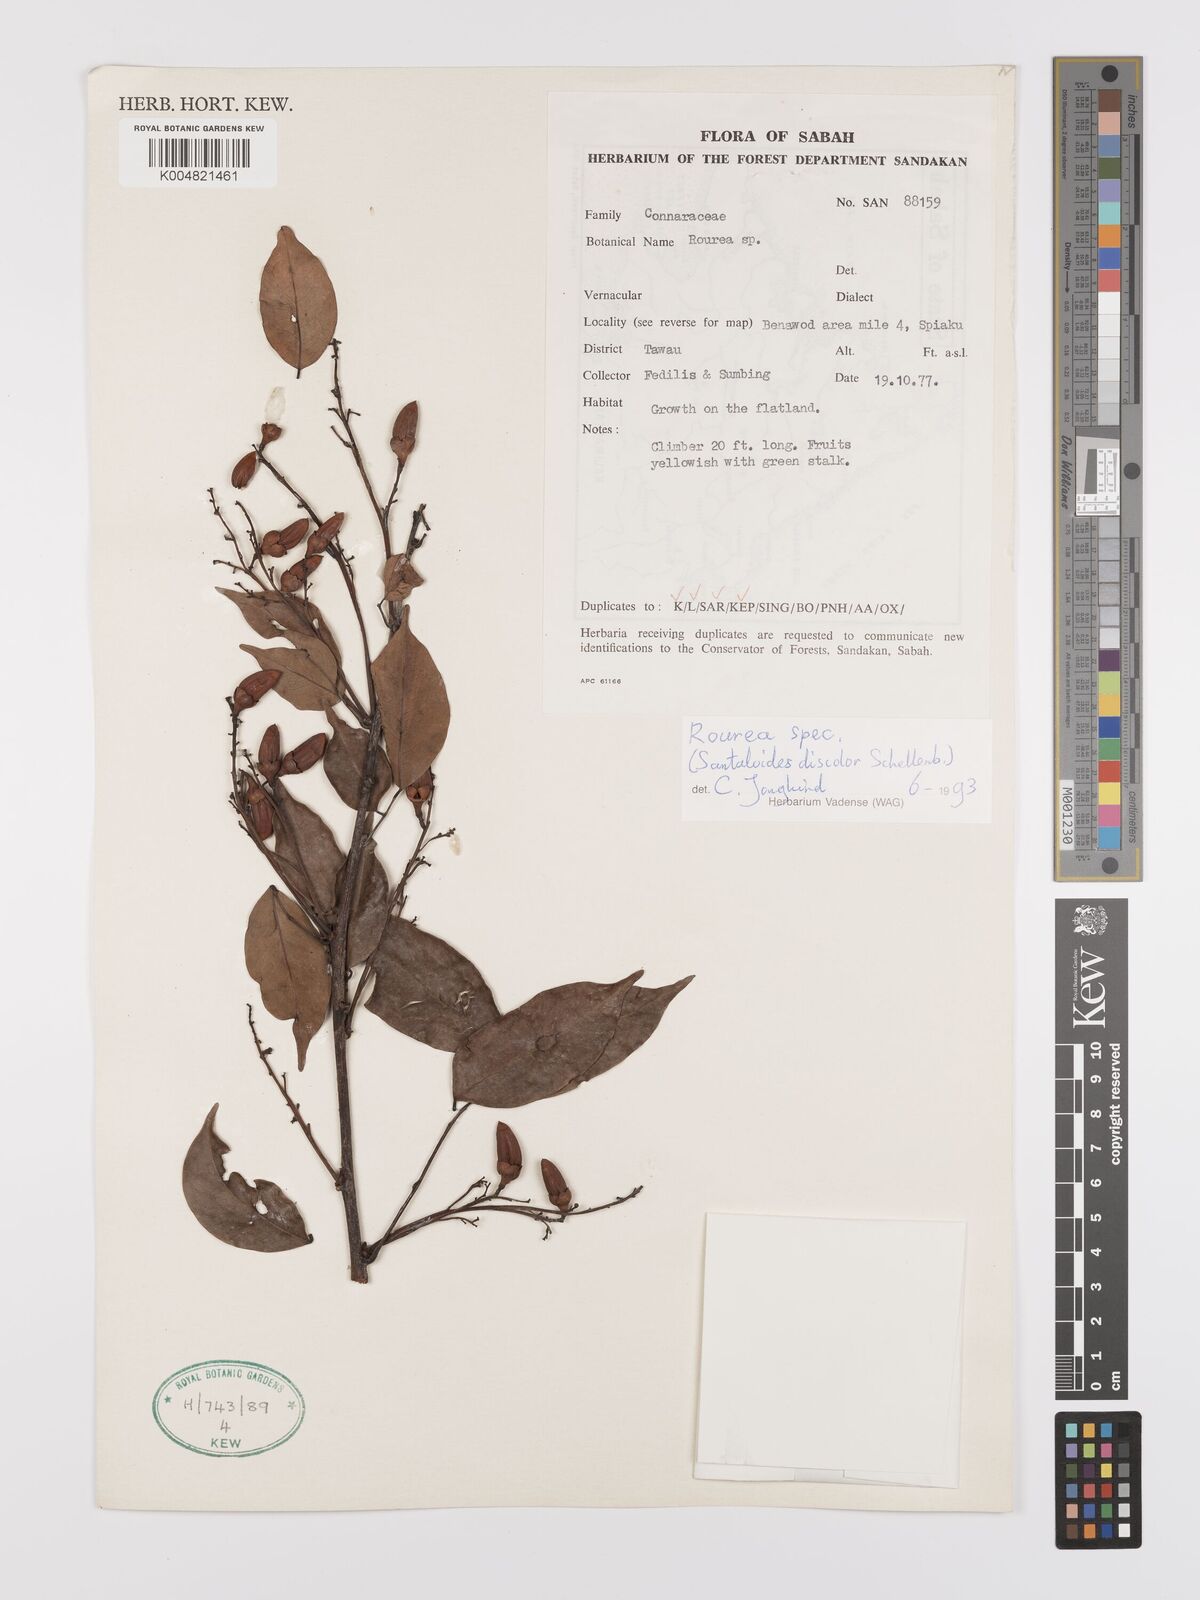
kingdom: Plantae
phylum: Tracheophyta
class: Magnoliopsida
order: Oxalidales
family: Connaraceae
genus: Rourea
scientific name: Rourea
